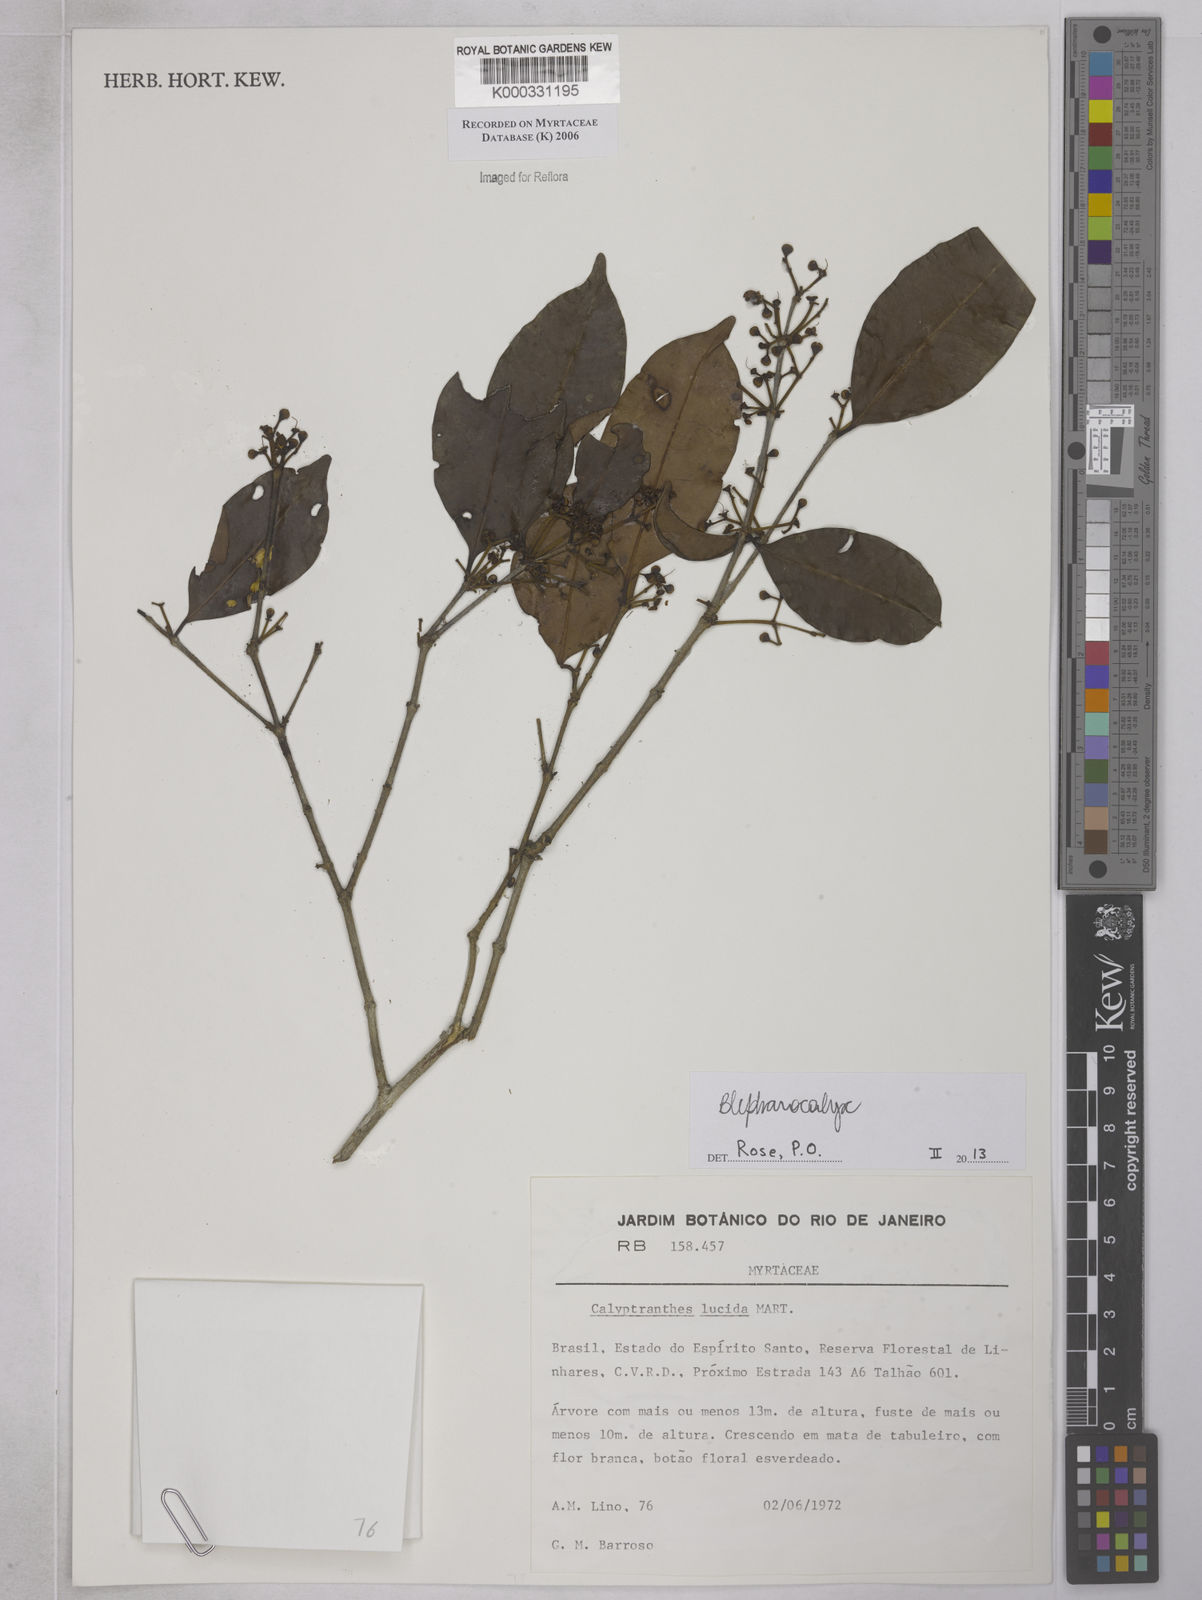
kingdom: Plantae
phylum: Tracheophyta
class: Magnoliopsida
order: Myrtales
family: Myrtaceae
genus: Myrcia
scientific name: Myrcia neolucida
